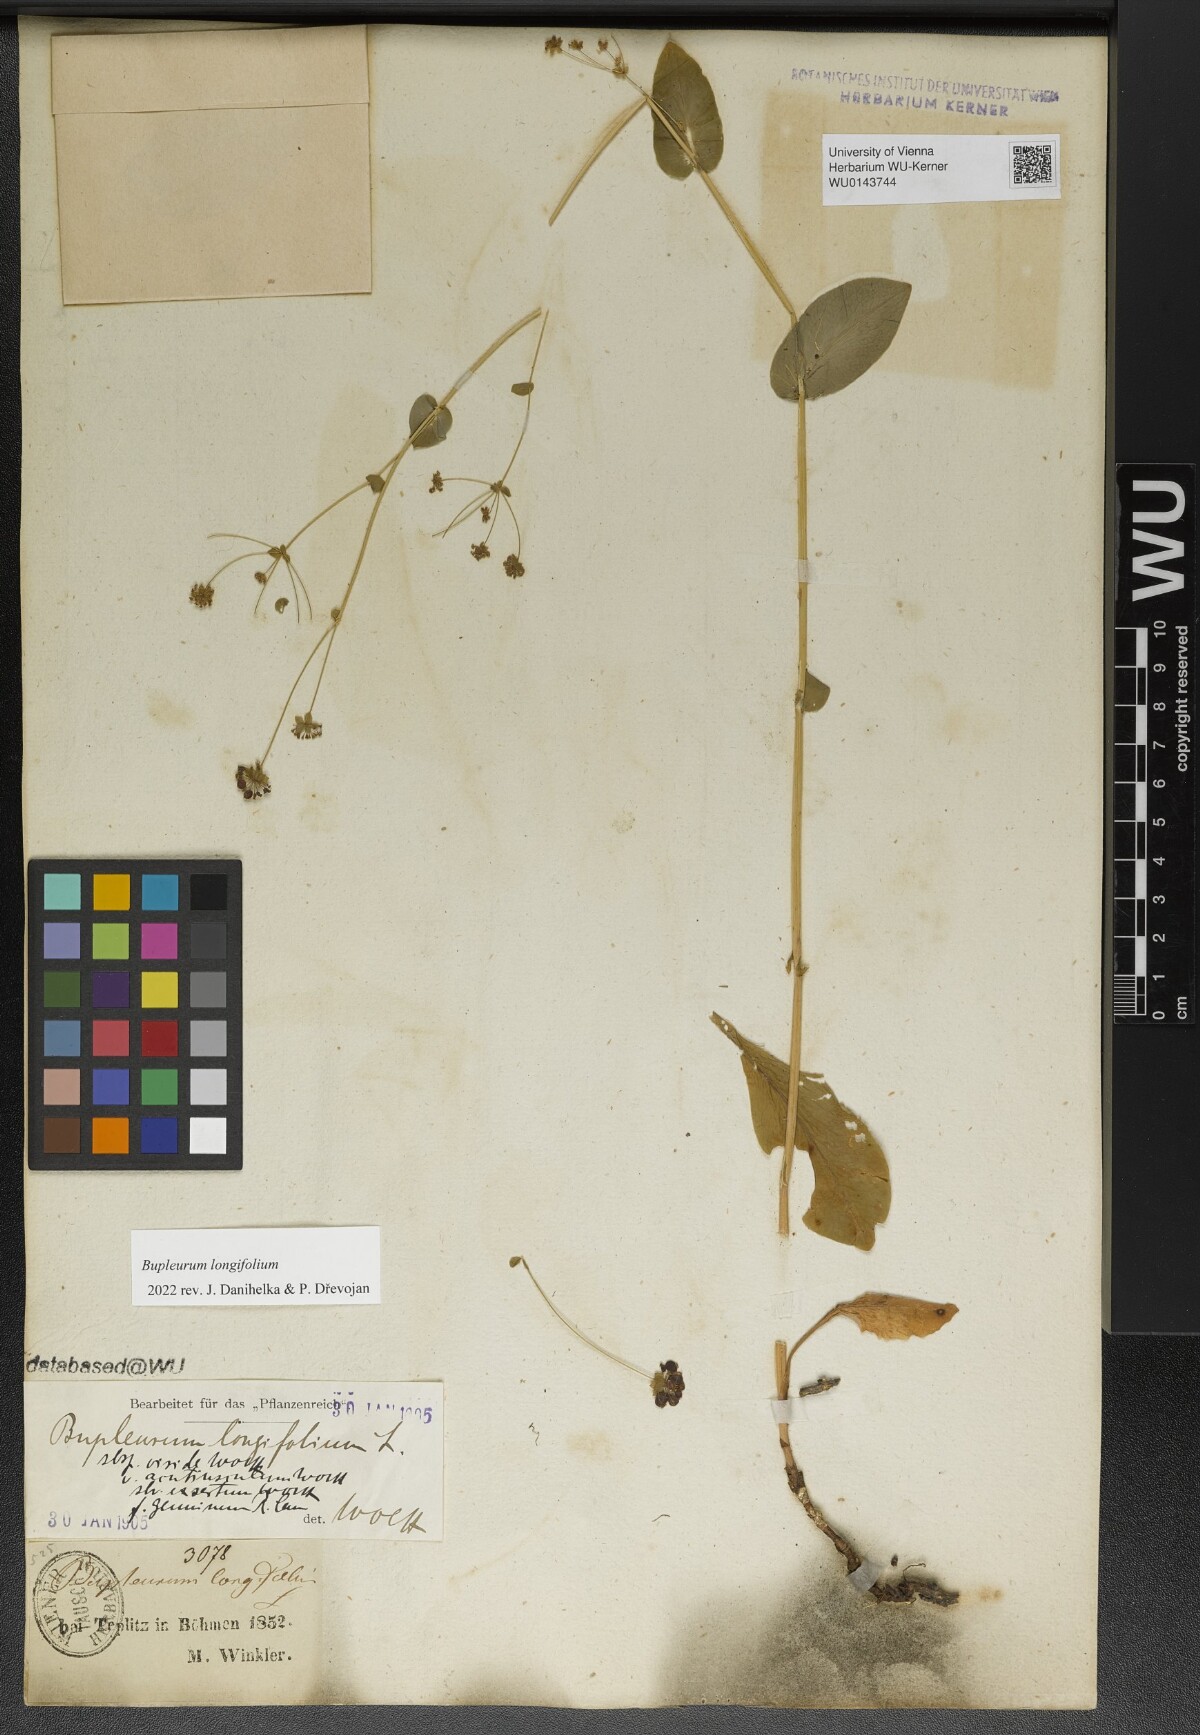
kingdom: Plantae
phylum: Tracheophyta
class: Magnoliopsida
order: Apiales
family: Apiaceae
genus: Bupleurum
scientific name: Bupleurum longifolium
